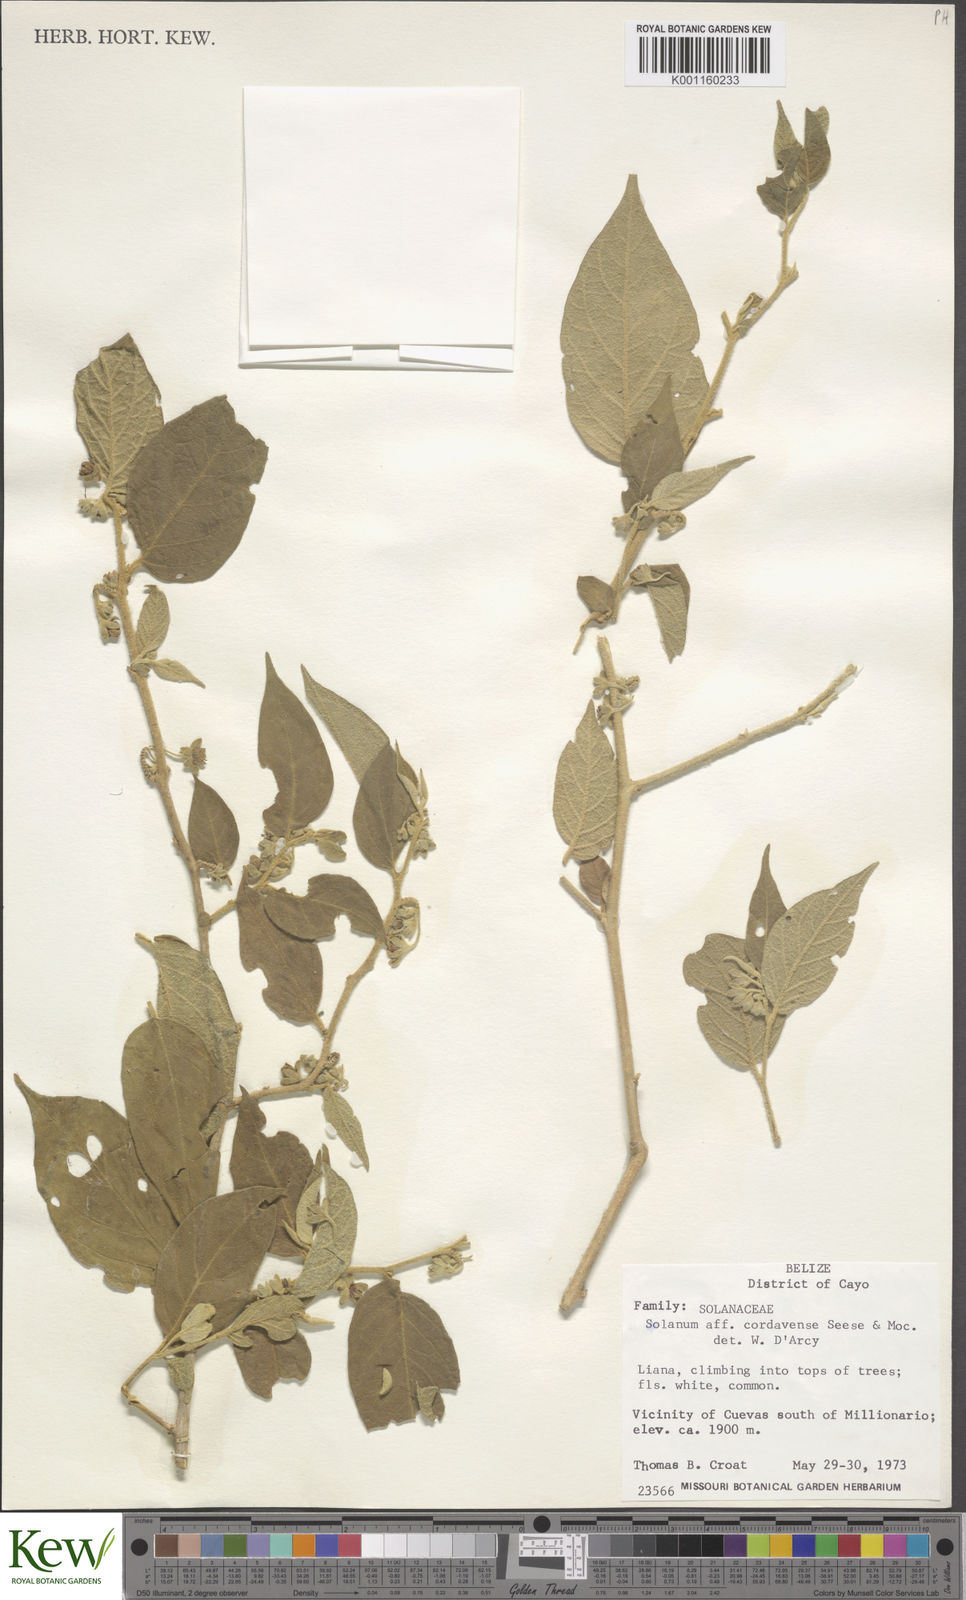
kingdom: Plantae
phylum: Tracheophyta
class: Magnoliopsida
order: Solanales
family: Solanaceae
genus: Solanum
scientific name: Solanum
